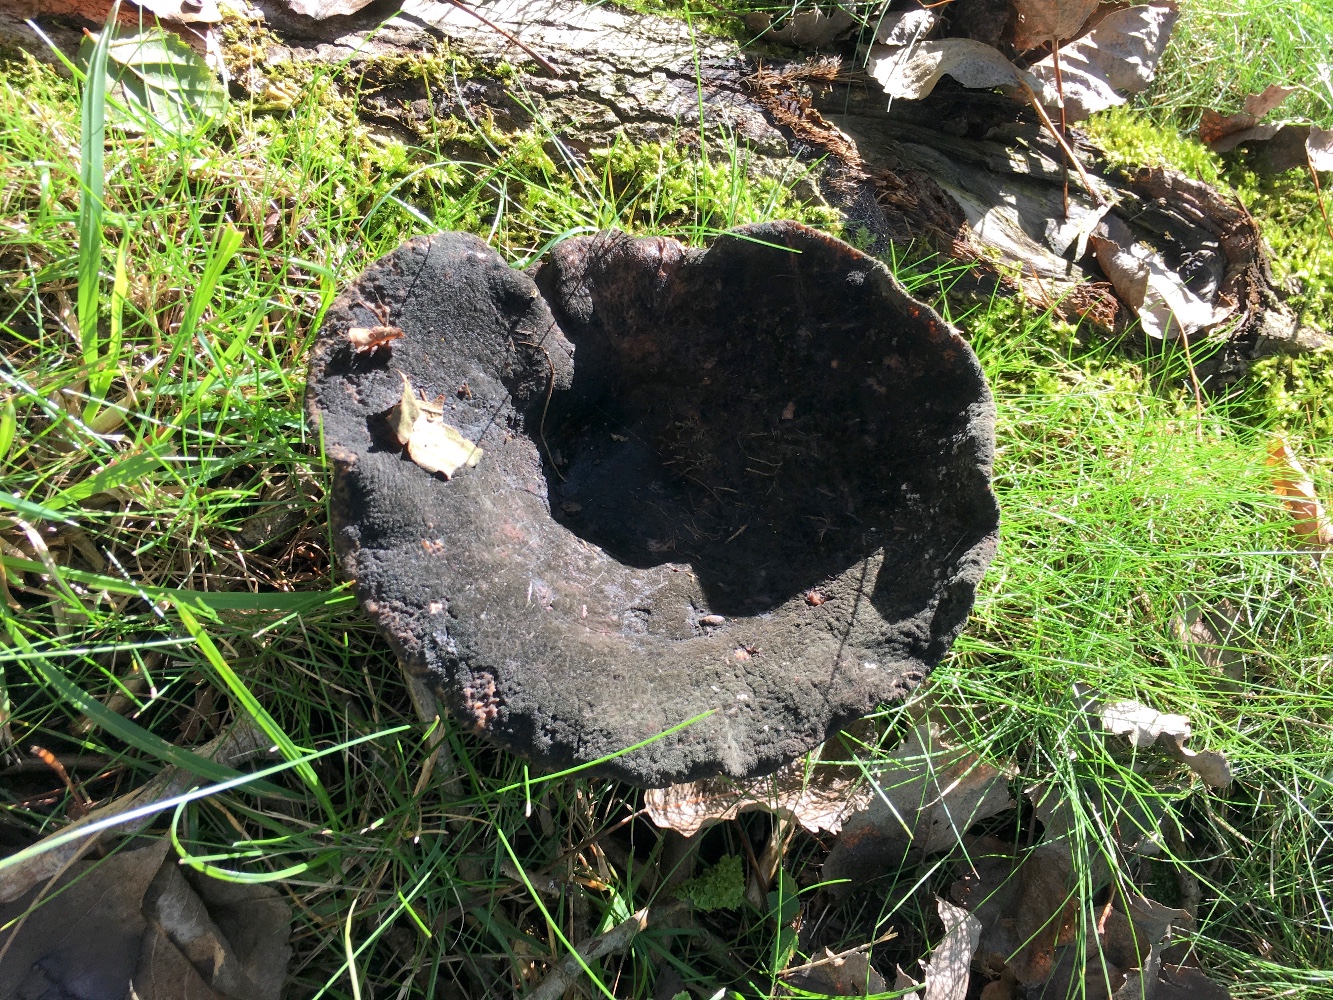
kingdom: Fungi
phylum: Basidiomycota
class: Agaricomycetes
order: Russulales
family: Russulaceae
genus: Lactarius
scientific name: Lactarius controversus
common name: rosabladet mælkehat
